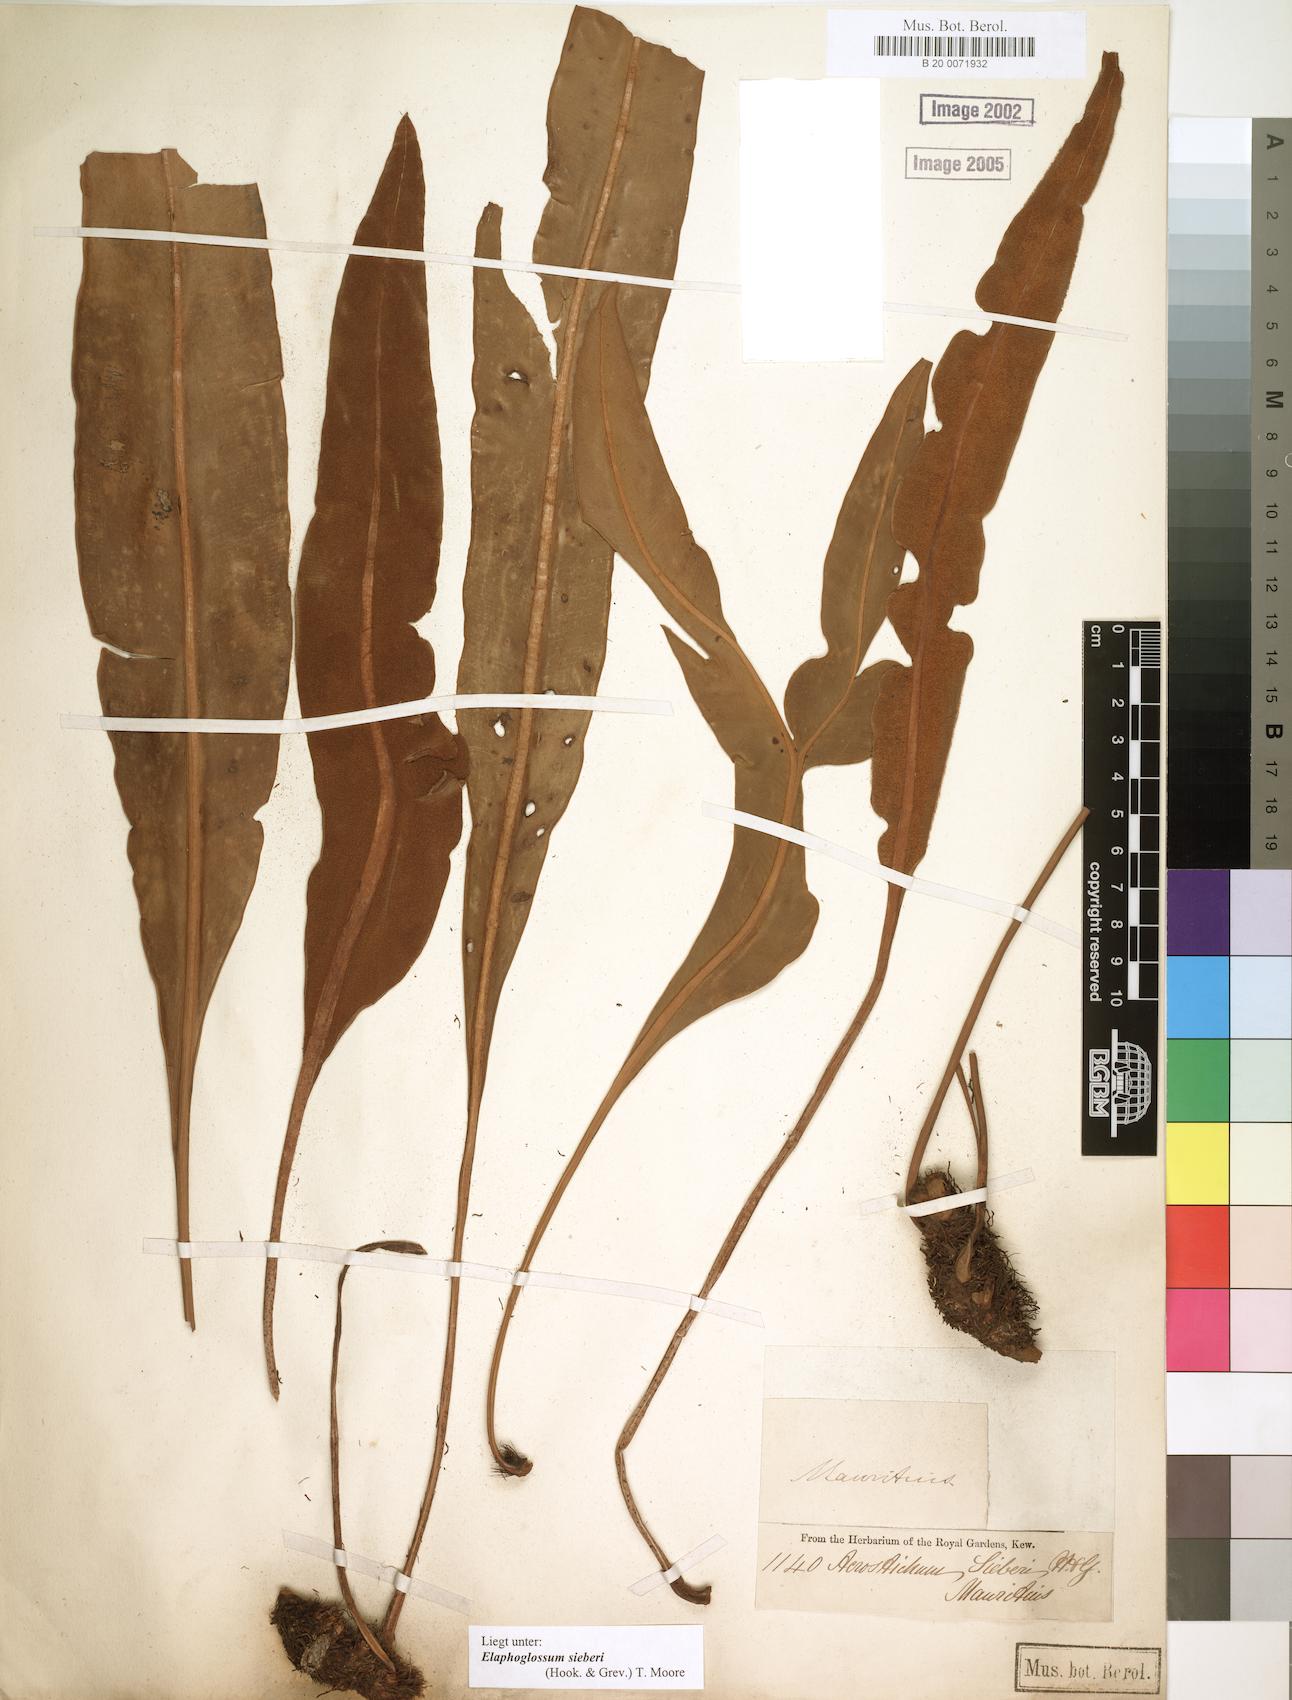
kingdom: Plantae
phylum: Tracheophyta
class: Polypodiopsida
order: Polypodiales
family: Dryopteridaceae
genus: Elaphoglossum
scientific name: Elaphoglossum sieberi
